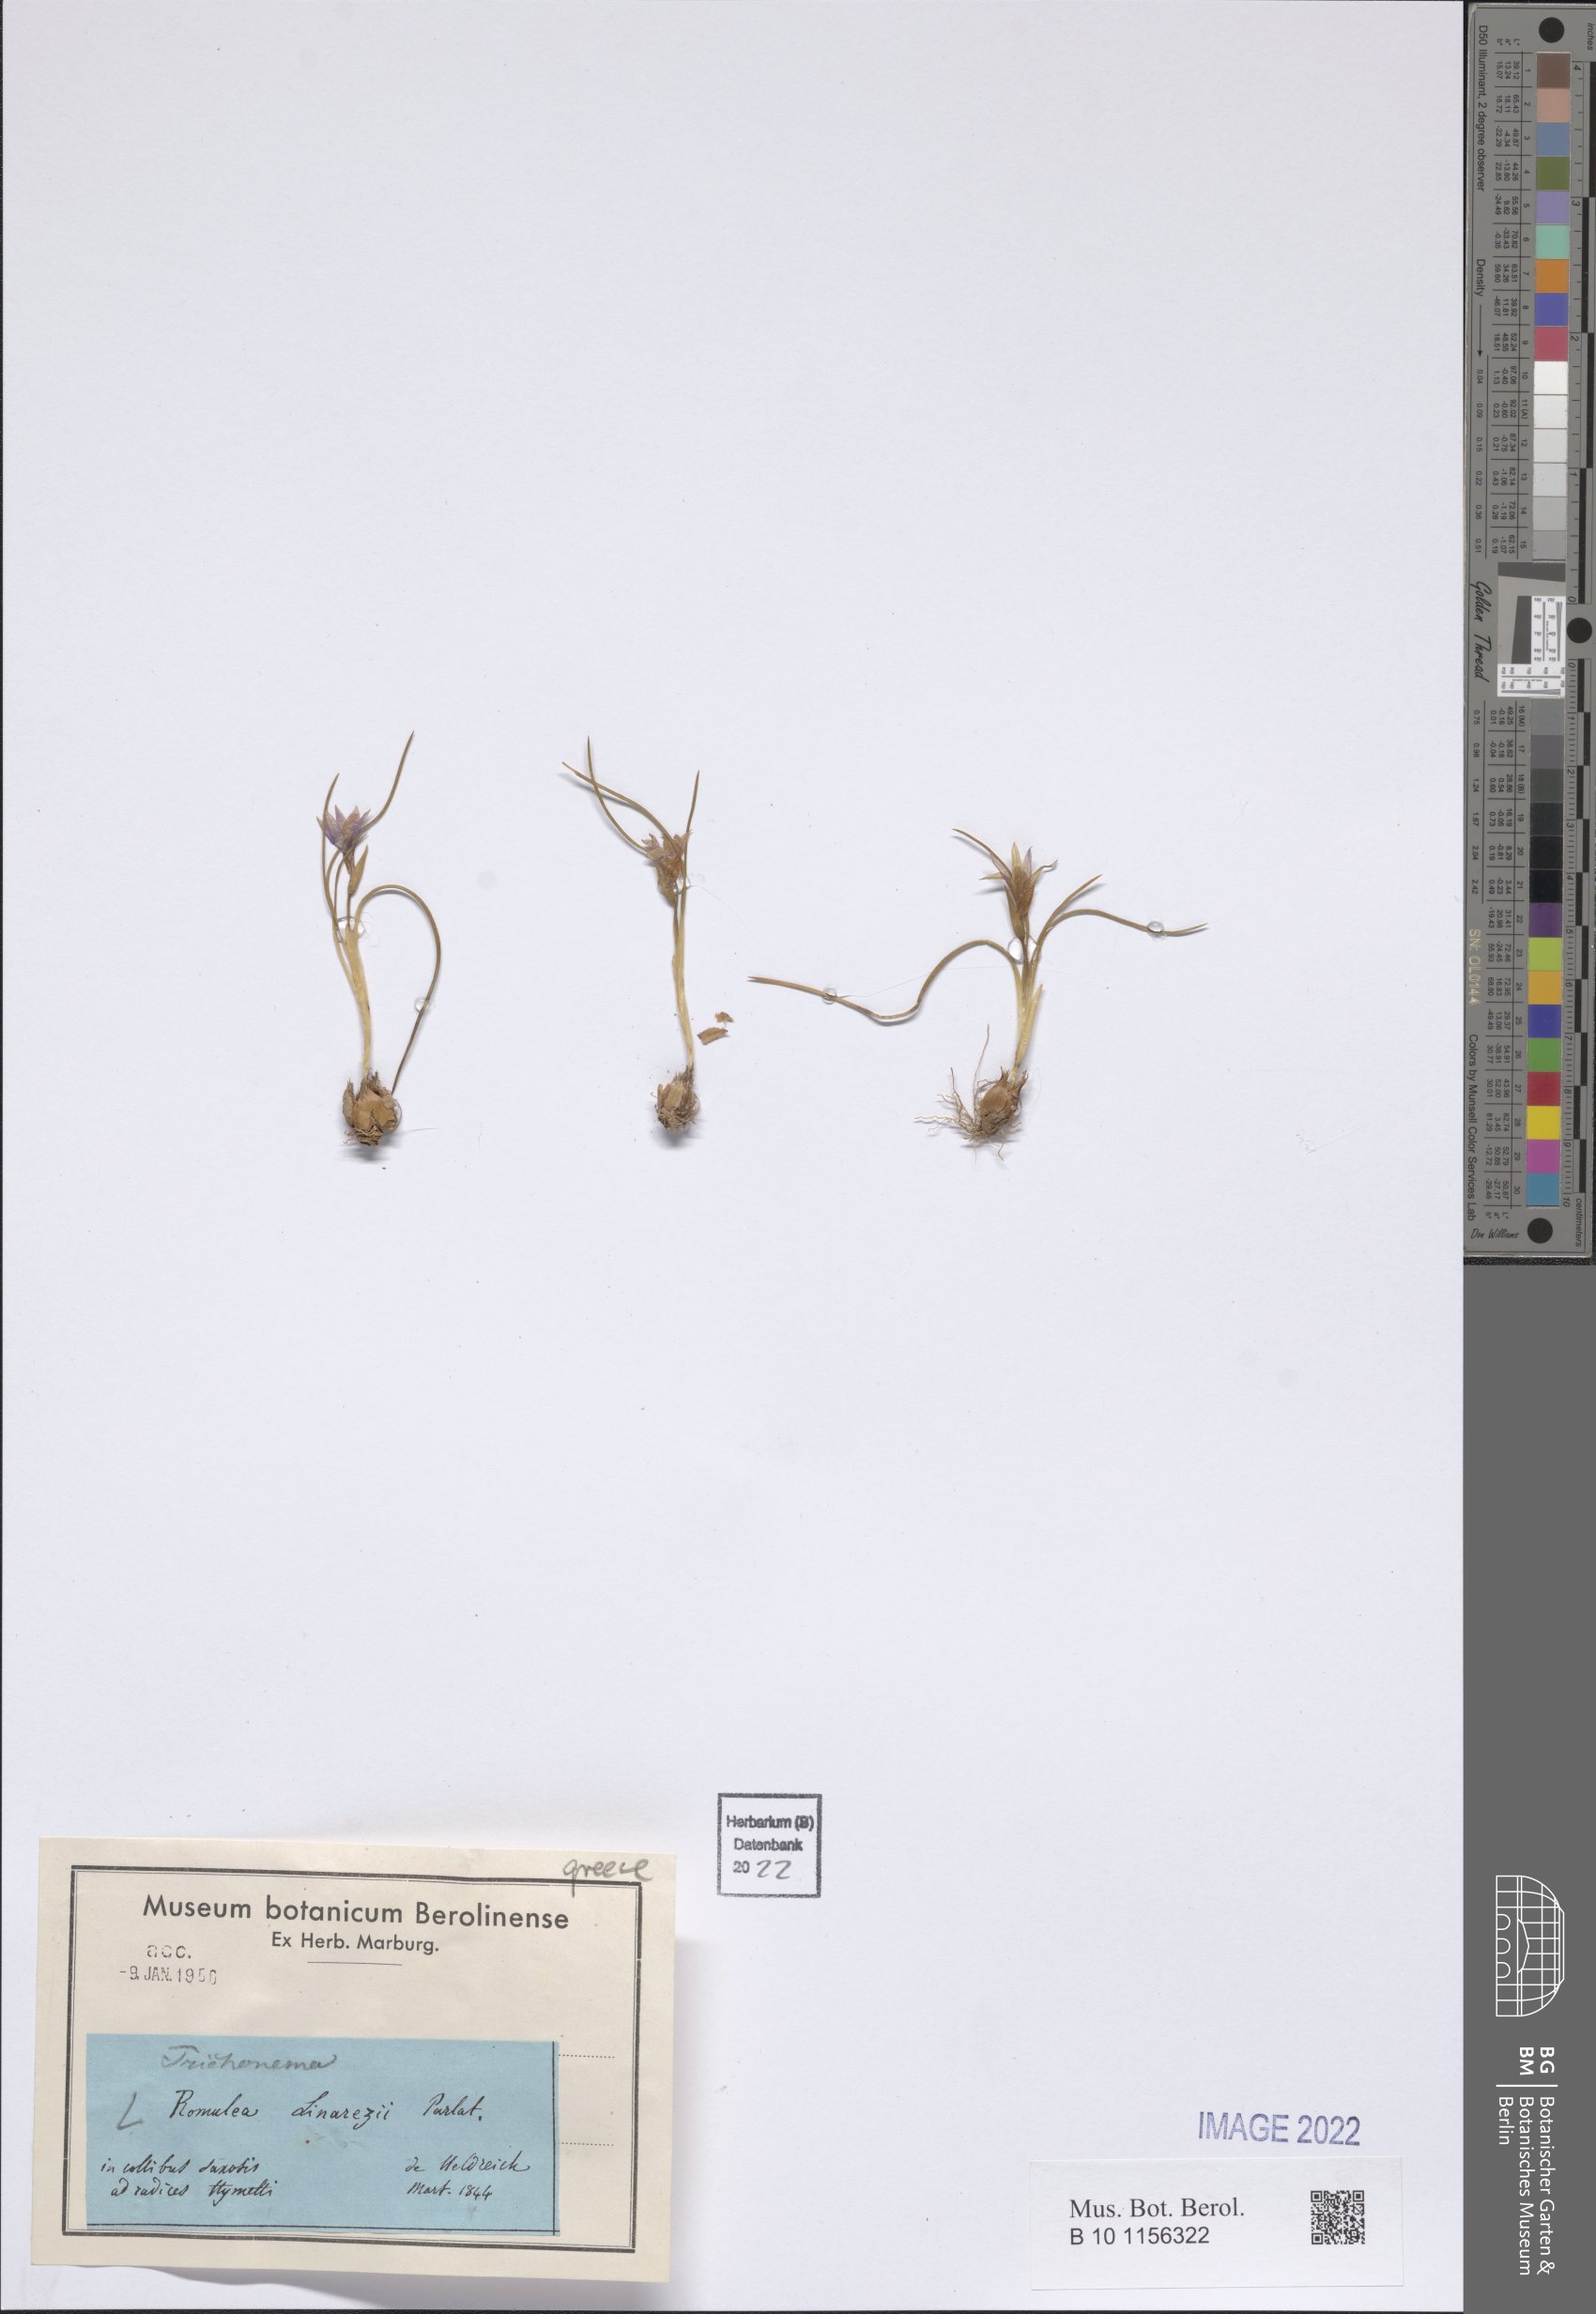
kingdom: Plantae
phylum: Tracheophyta
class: Liliopsida
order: Asparagales
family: Iridaceae
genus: Romulea
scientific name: Romulea linaresii
